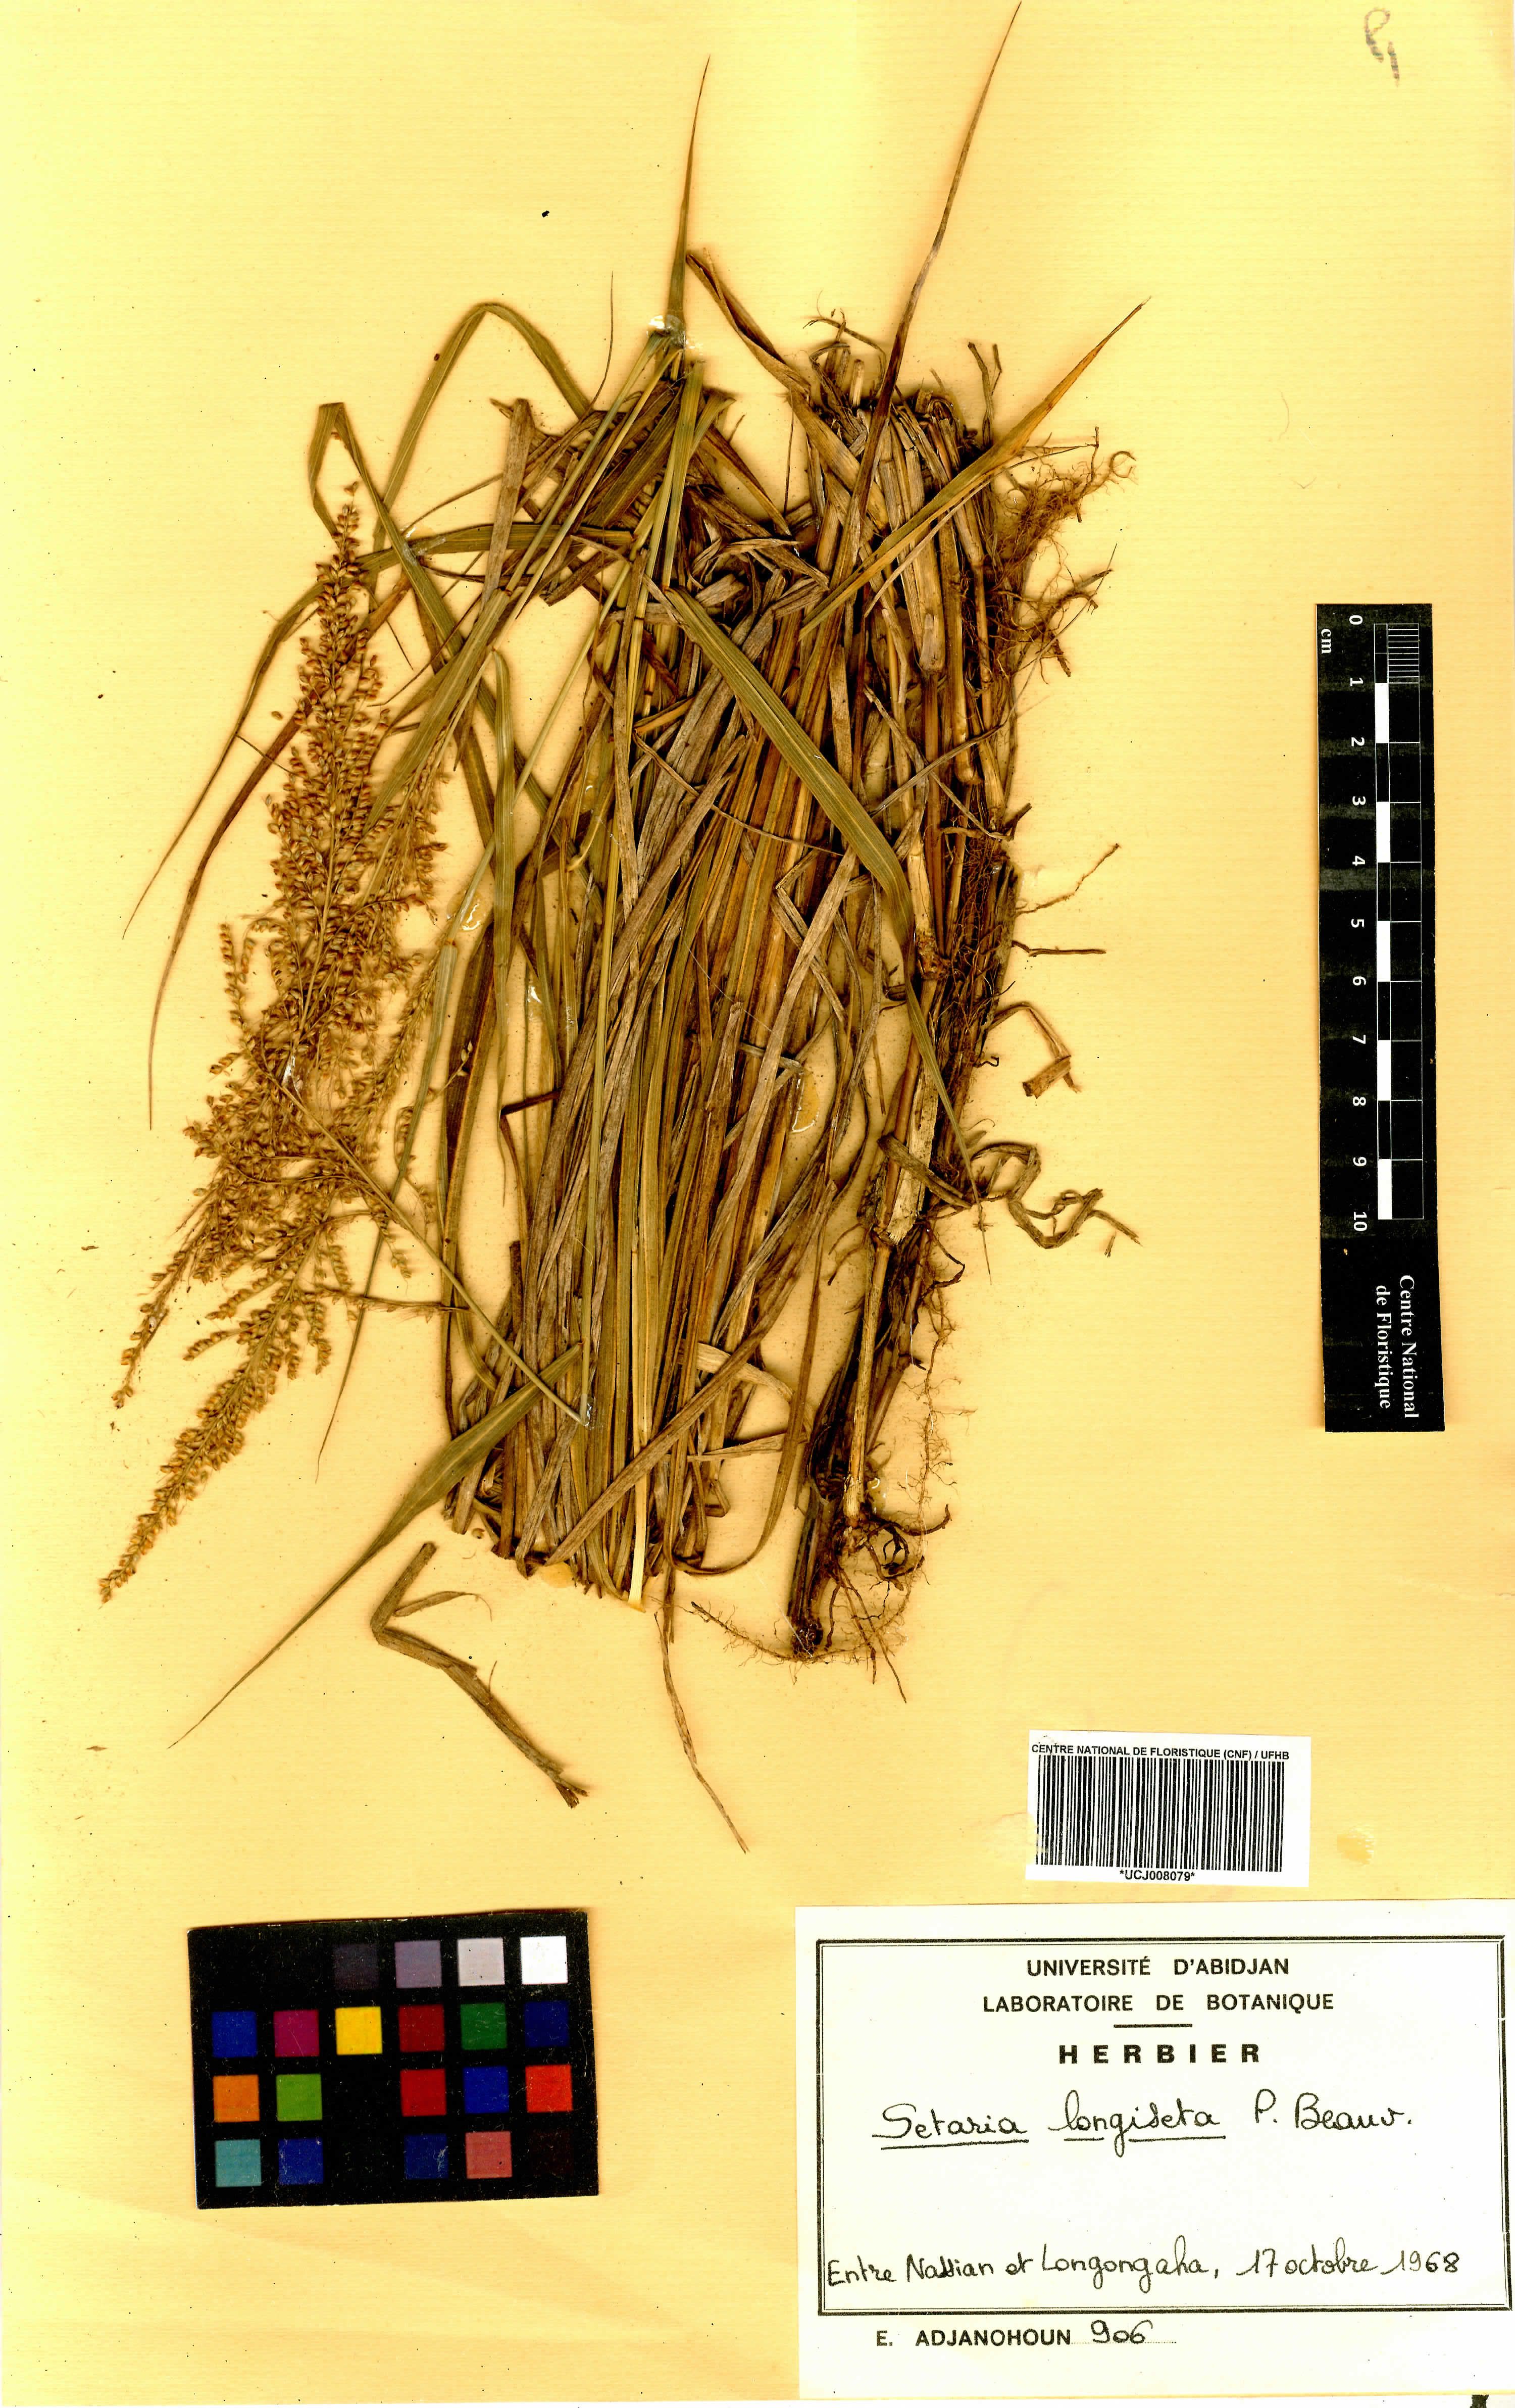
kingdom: Plantae
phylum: Tracheophyta
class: Liliopsida
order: Poales
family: Poaceae
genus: Setaria
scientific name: Setaria longiseta
